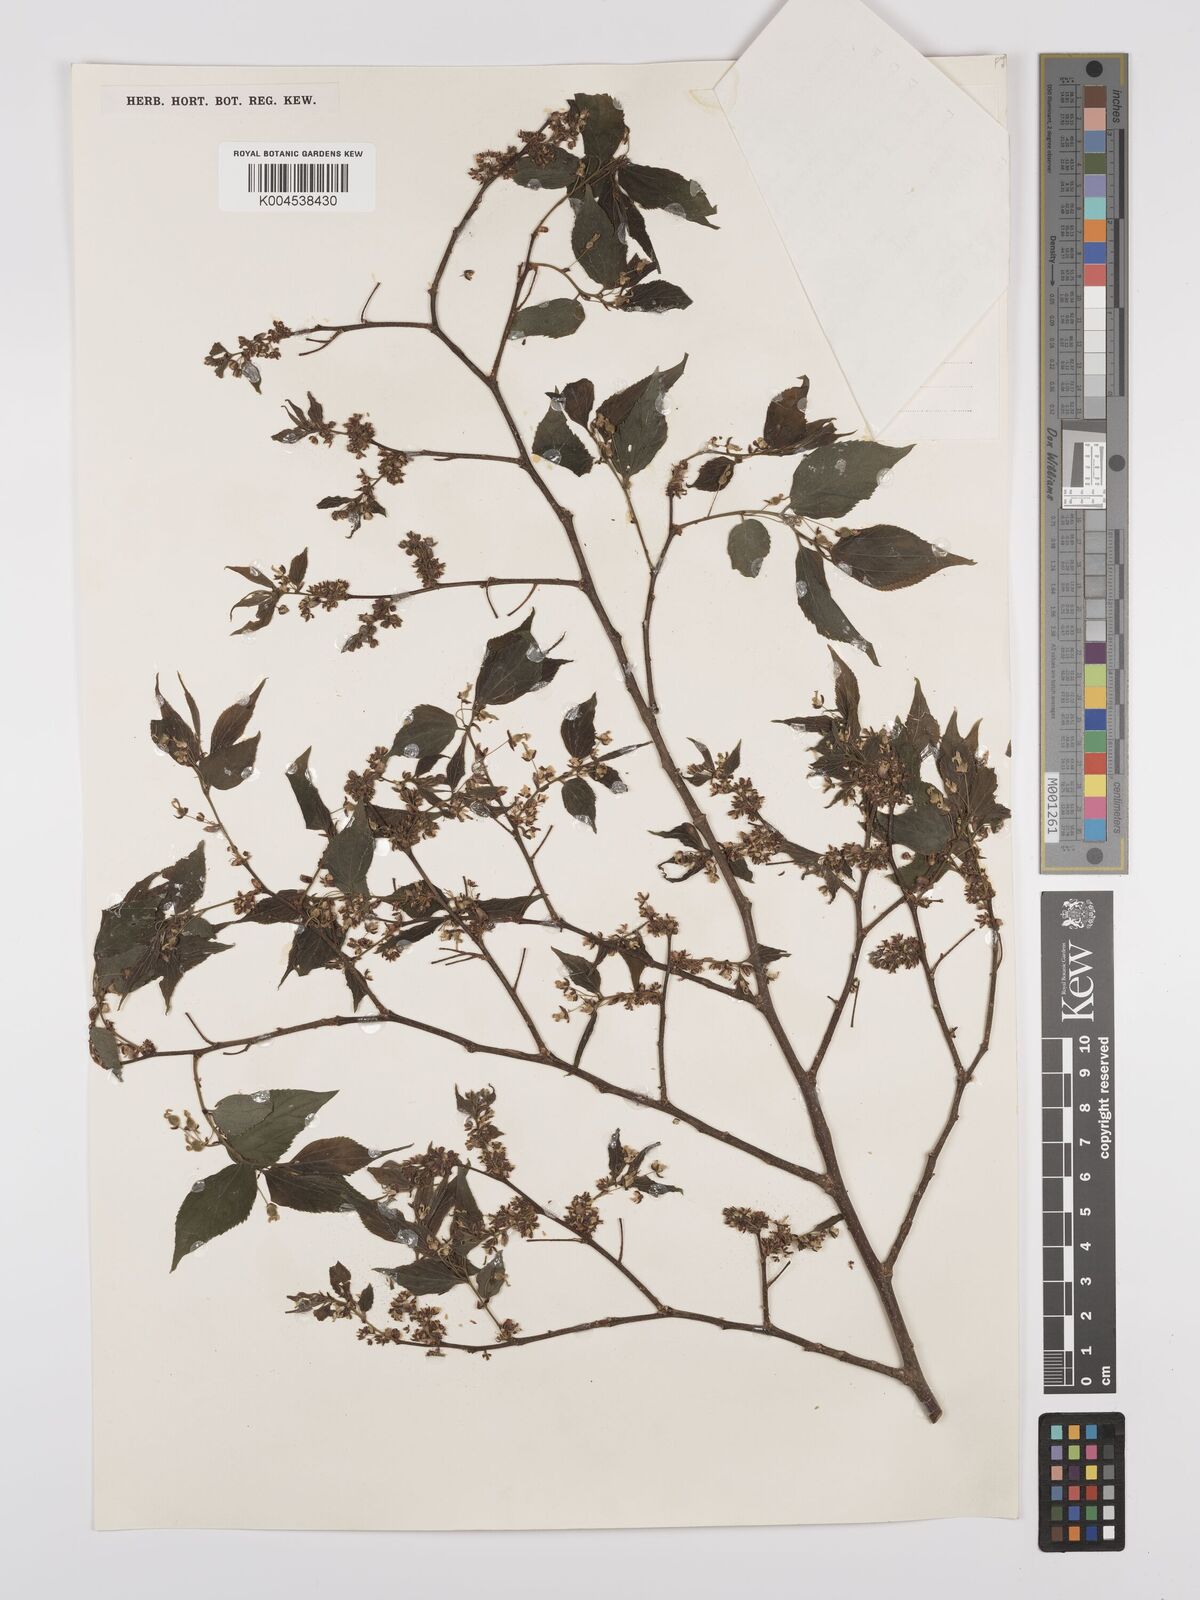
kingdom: Plantae
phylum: Tracheophyta
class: Magnoliopsida
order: Rosales
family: Cannabaceae
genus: Celtis
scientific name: Celtis africana
